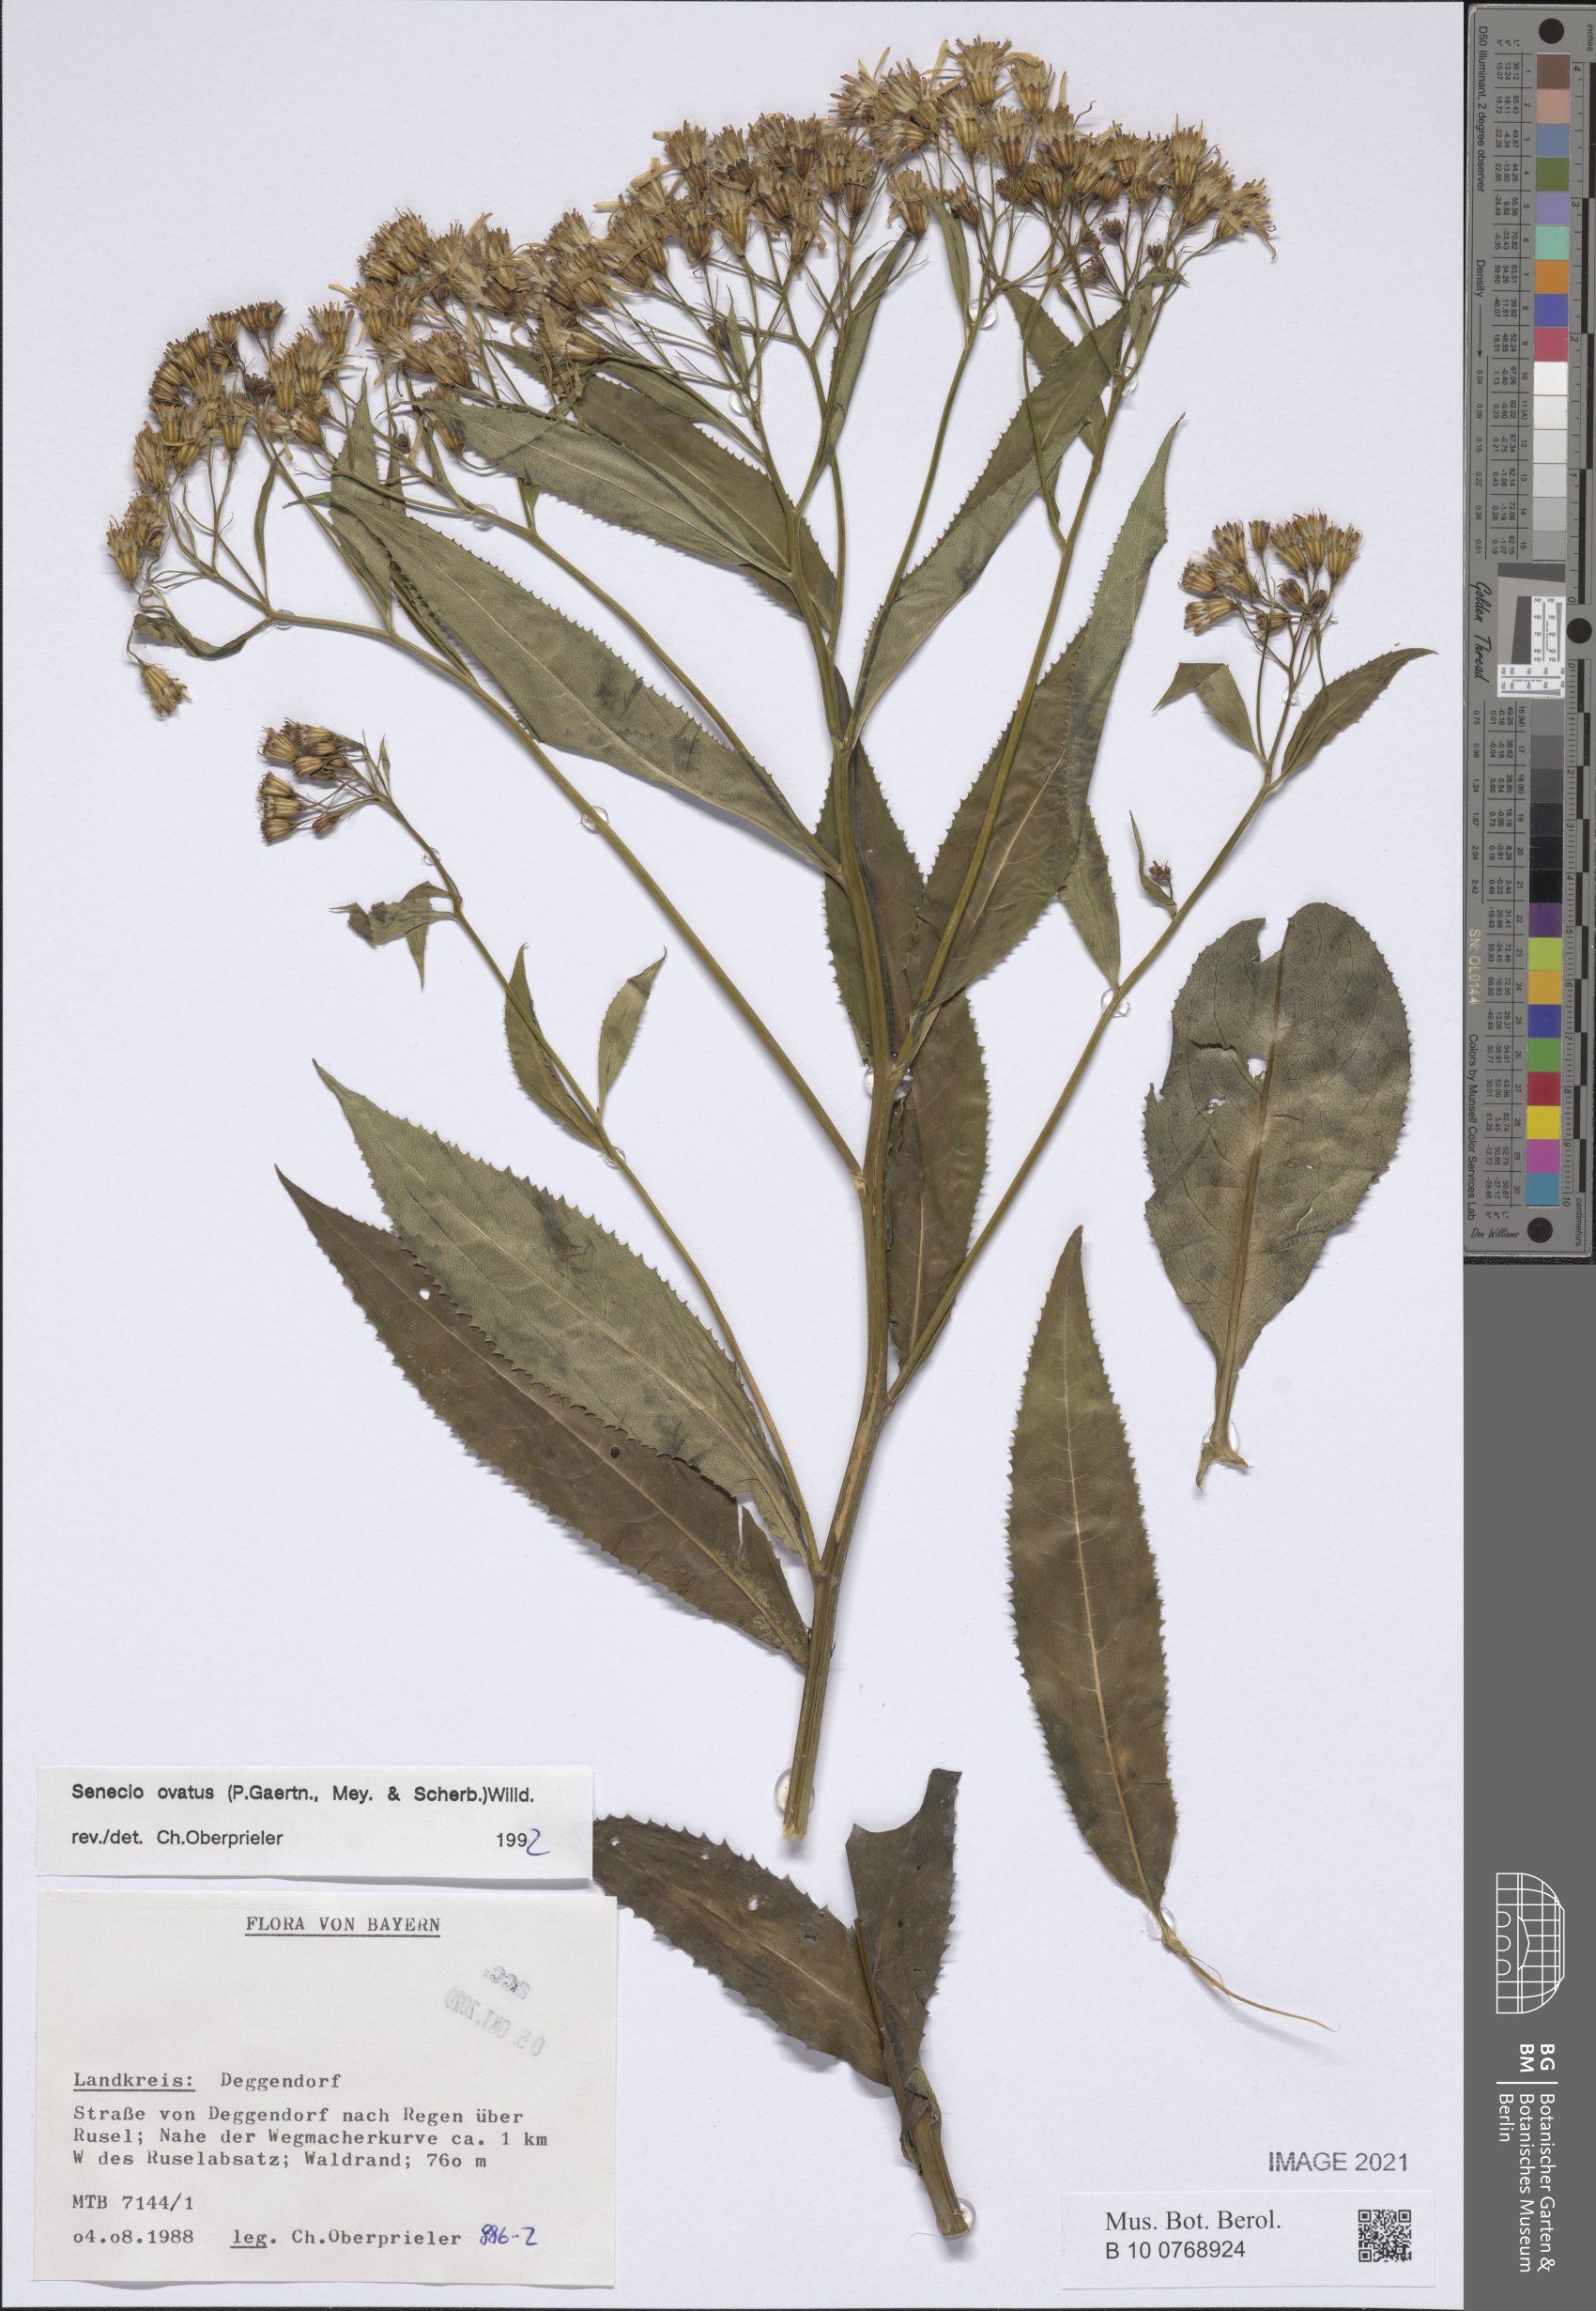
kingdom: Plantae
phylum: Tracheophyta
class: Magnoliopsida
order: Asterales
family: Asteraceae
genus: Senecio
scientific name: Senecio ovatus
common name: Wood ragwort
